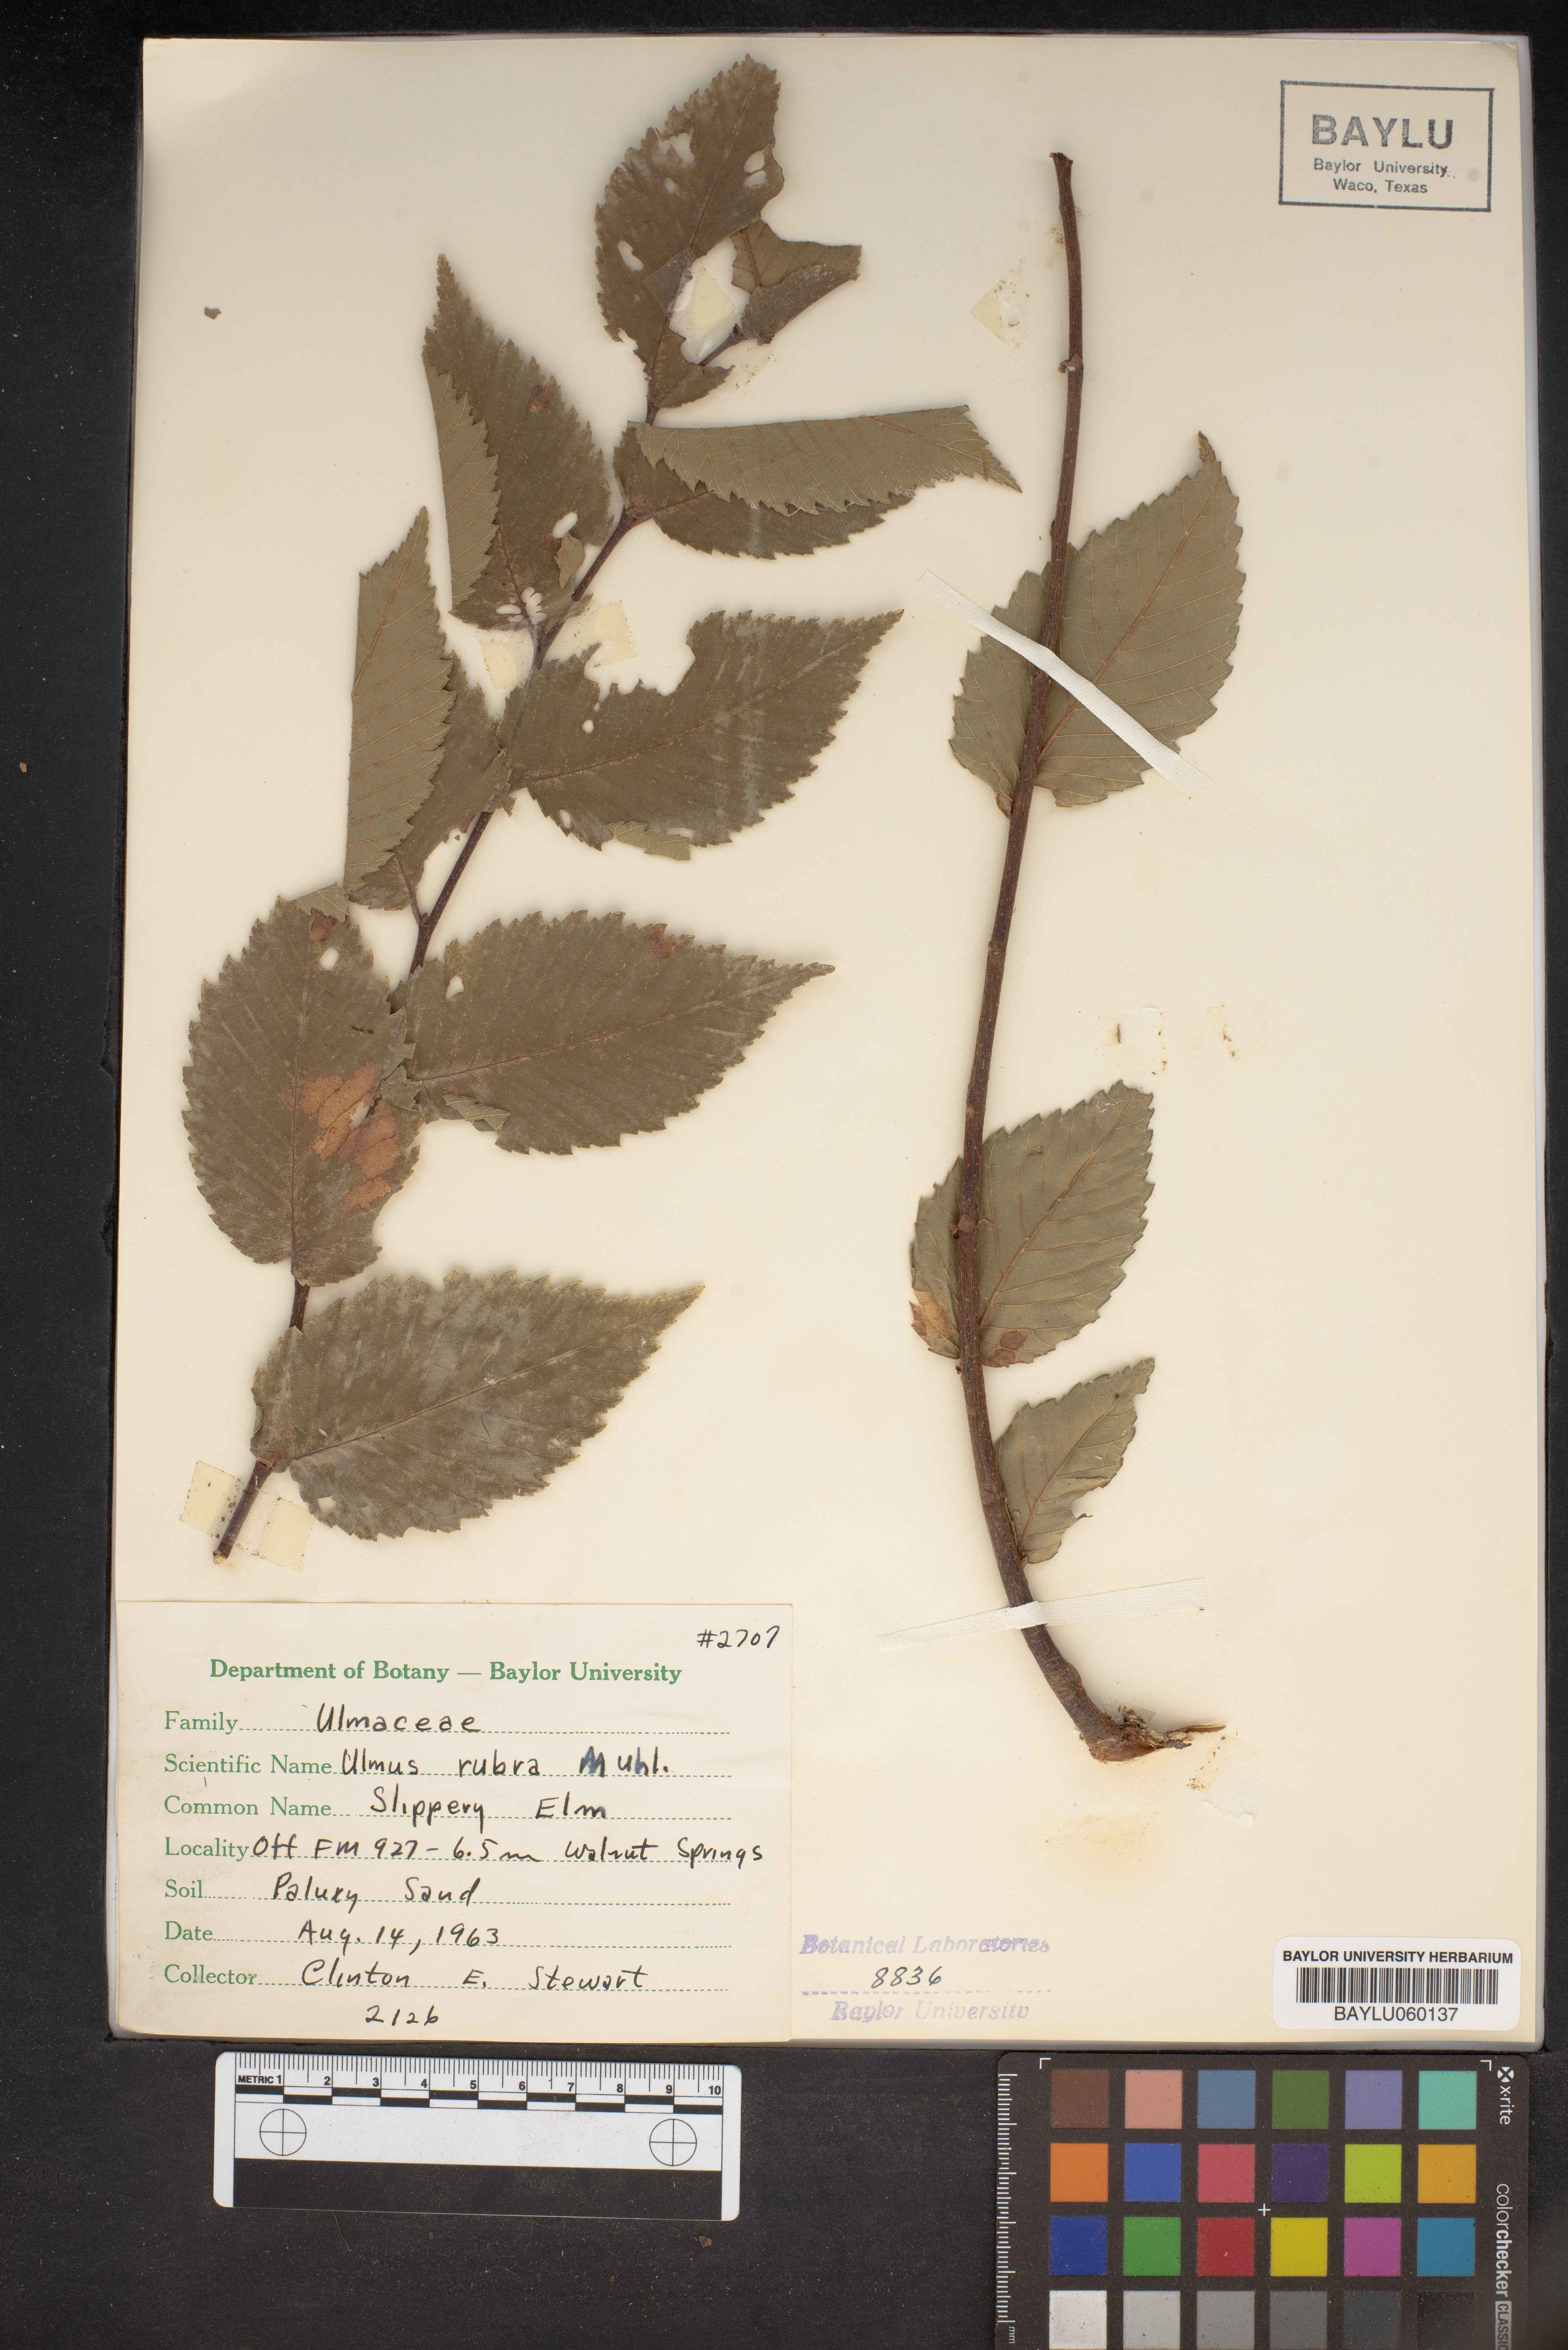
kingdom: Plantae
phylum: Tracheophyta
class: Magnoliopsida
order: Rosales
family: Ulmaceae
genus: Ulmus
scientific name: Ulmus rubra
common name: Slippery elm
